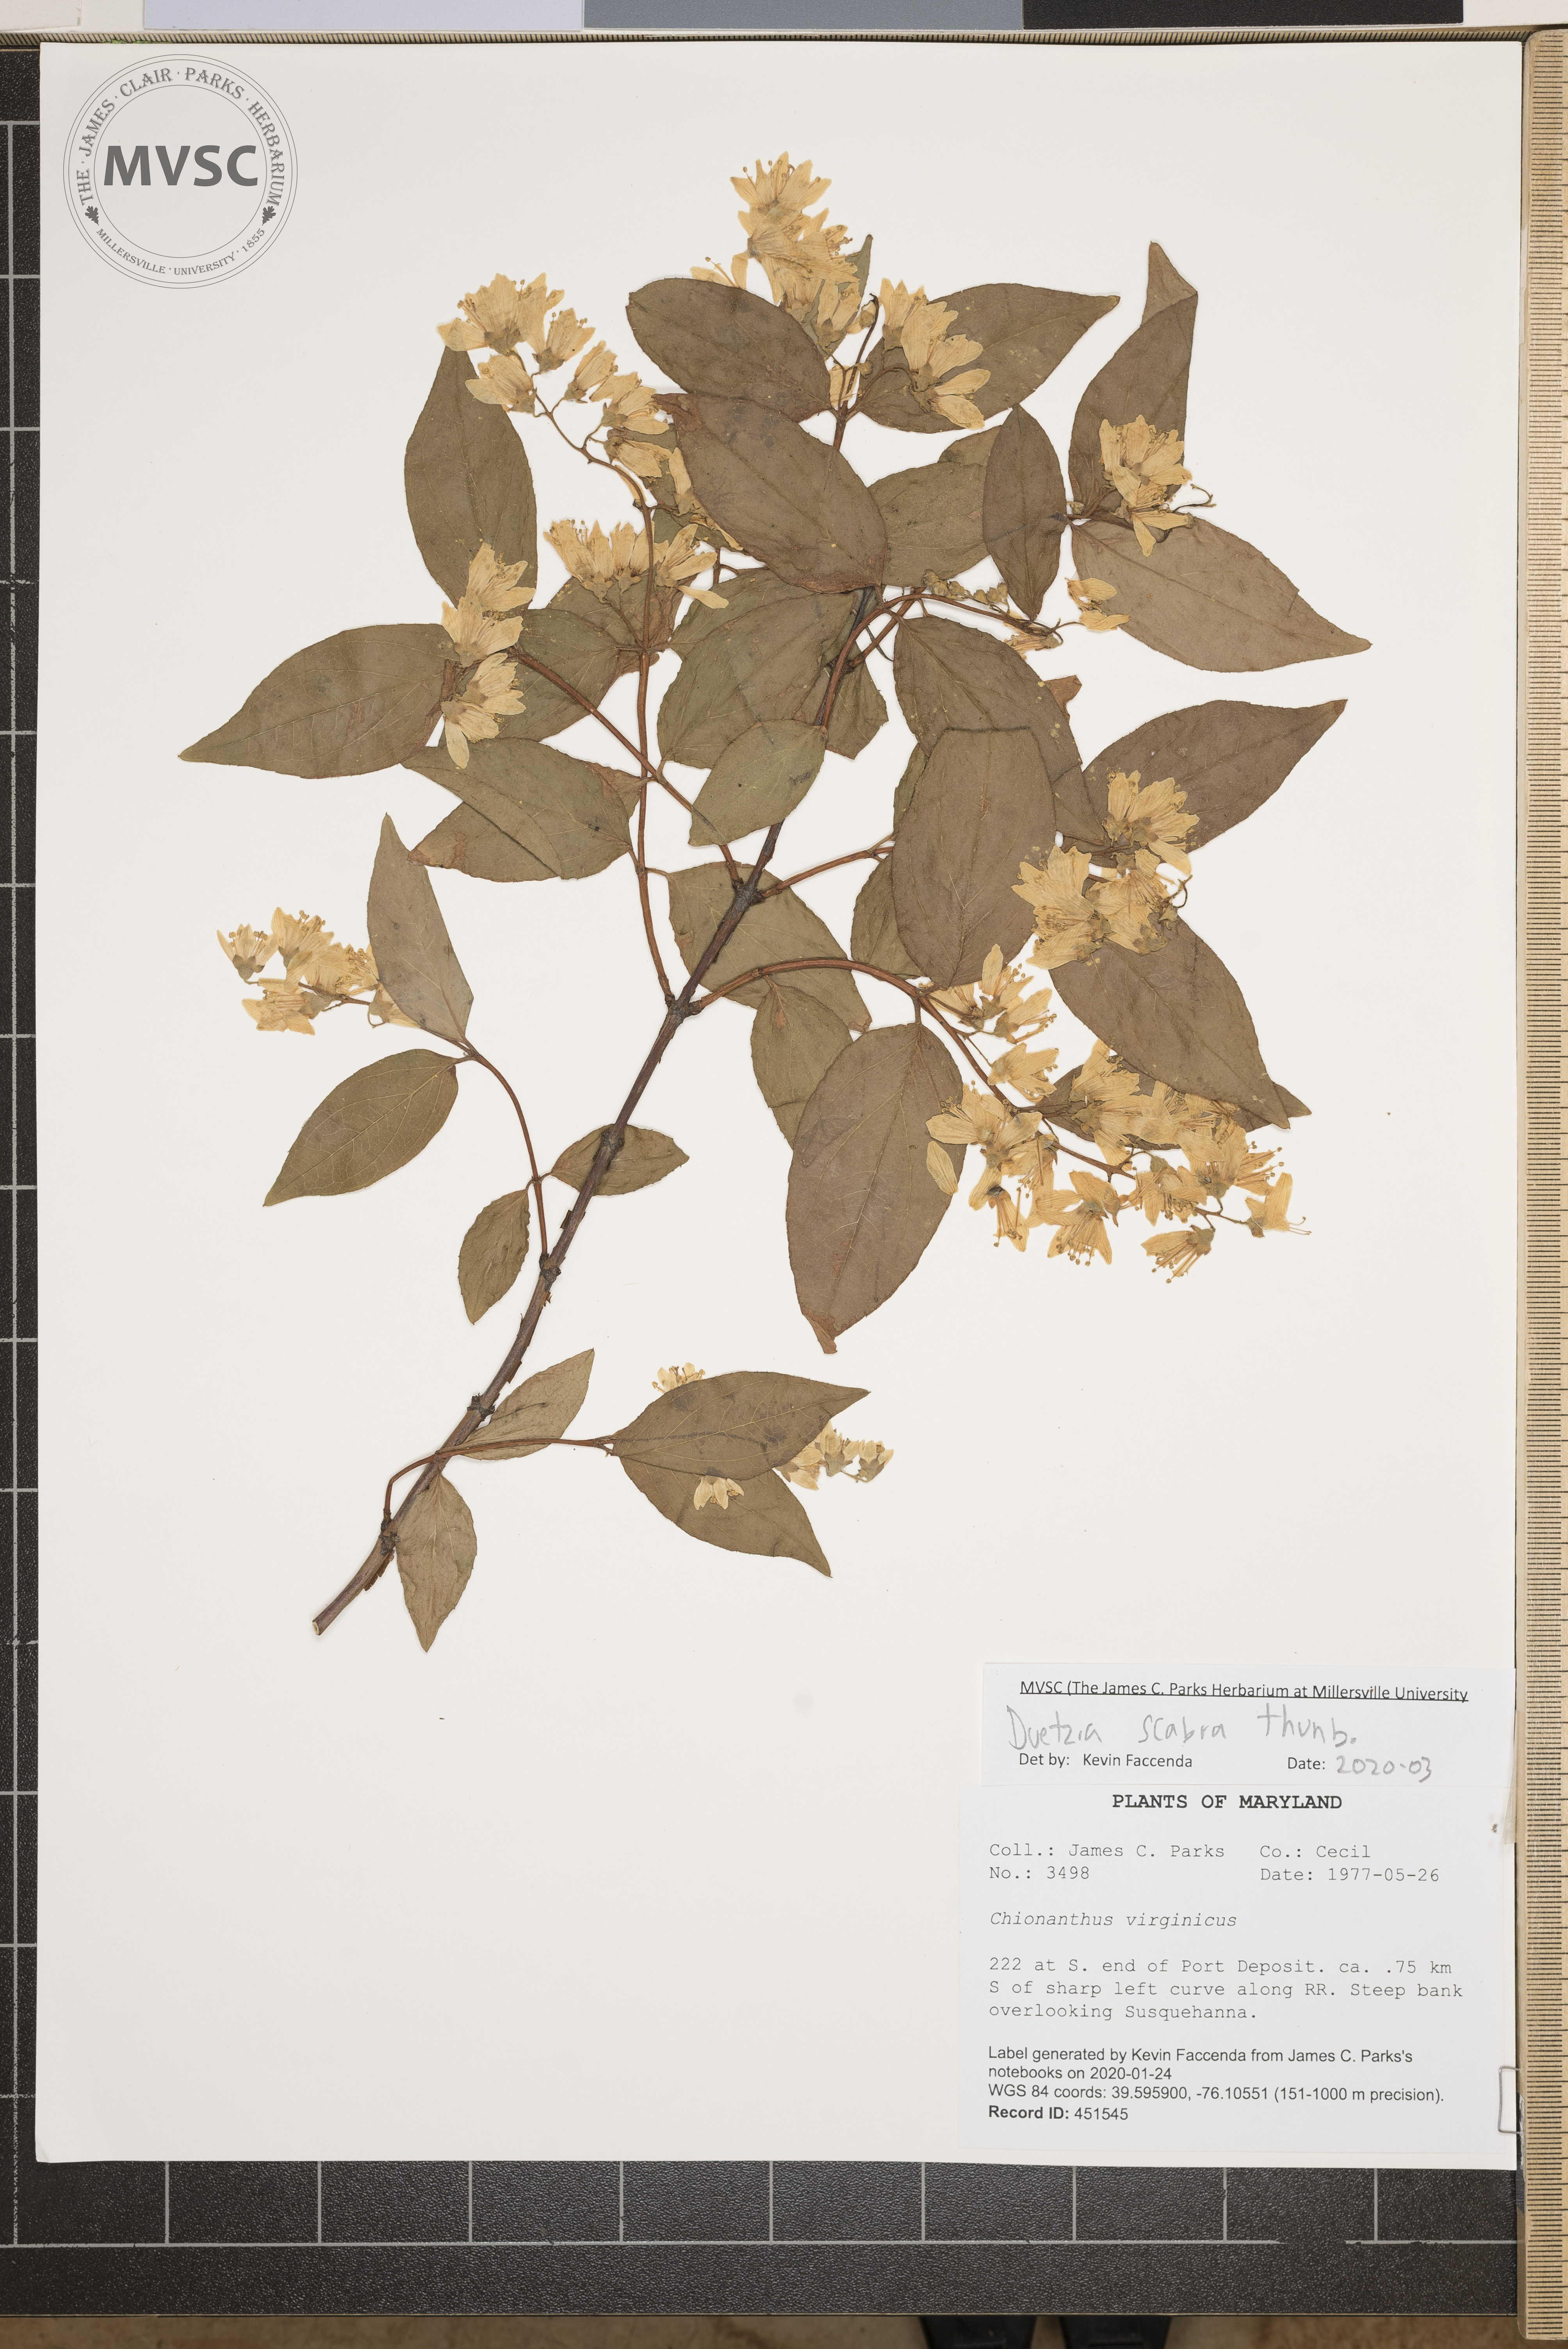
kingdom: Plantae
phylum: Tracheophyta
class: Magnoliopsida
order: Cornales
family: Hydrangeaceae
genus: Deutzia
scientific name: Deutzia scabra
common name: Deutzia
